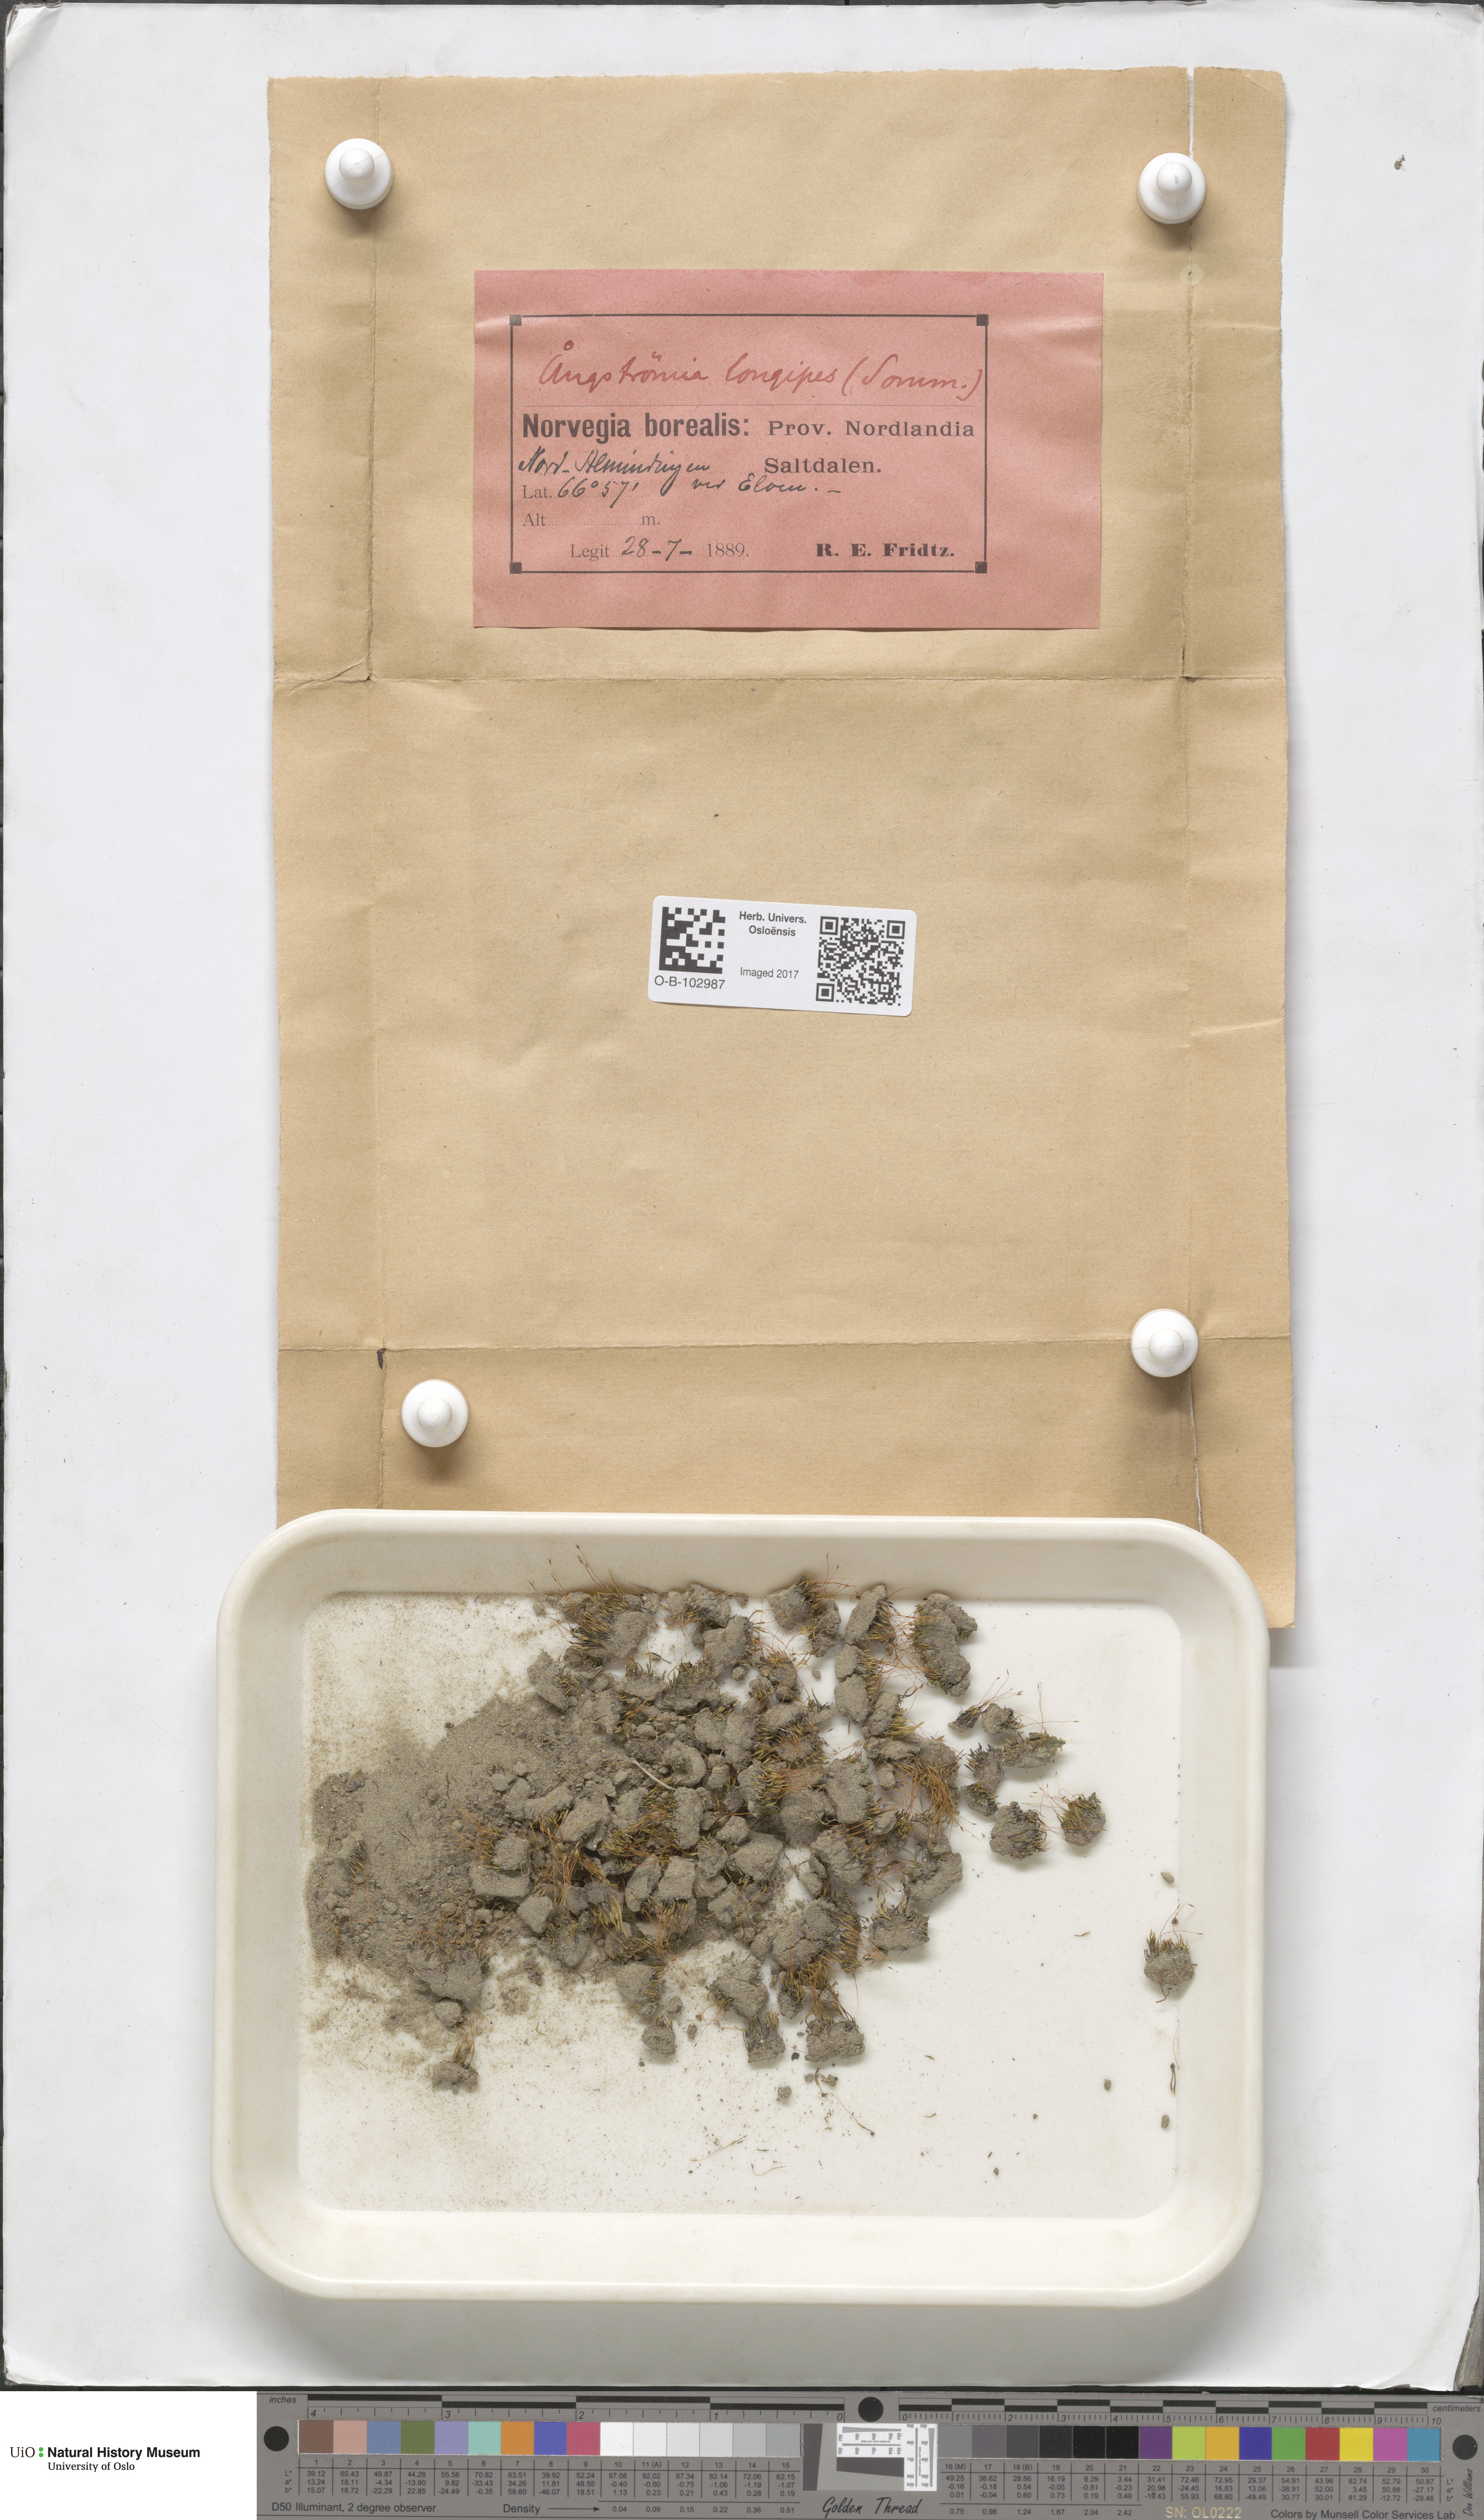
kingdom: Plantae
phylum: Bryophyta
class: Bryopsida
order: Dicranales
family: Aongstroemiaceae
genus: Aongstroemia
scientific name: Aongstroemia longipes
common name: Sprig moss
